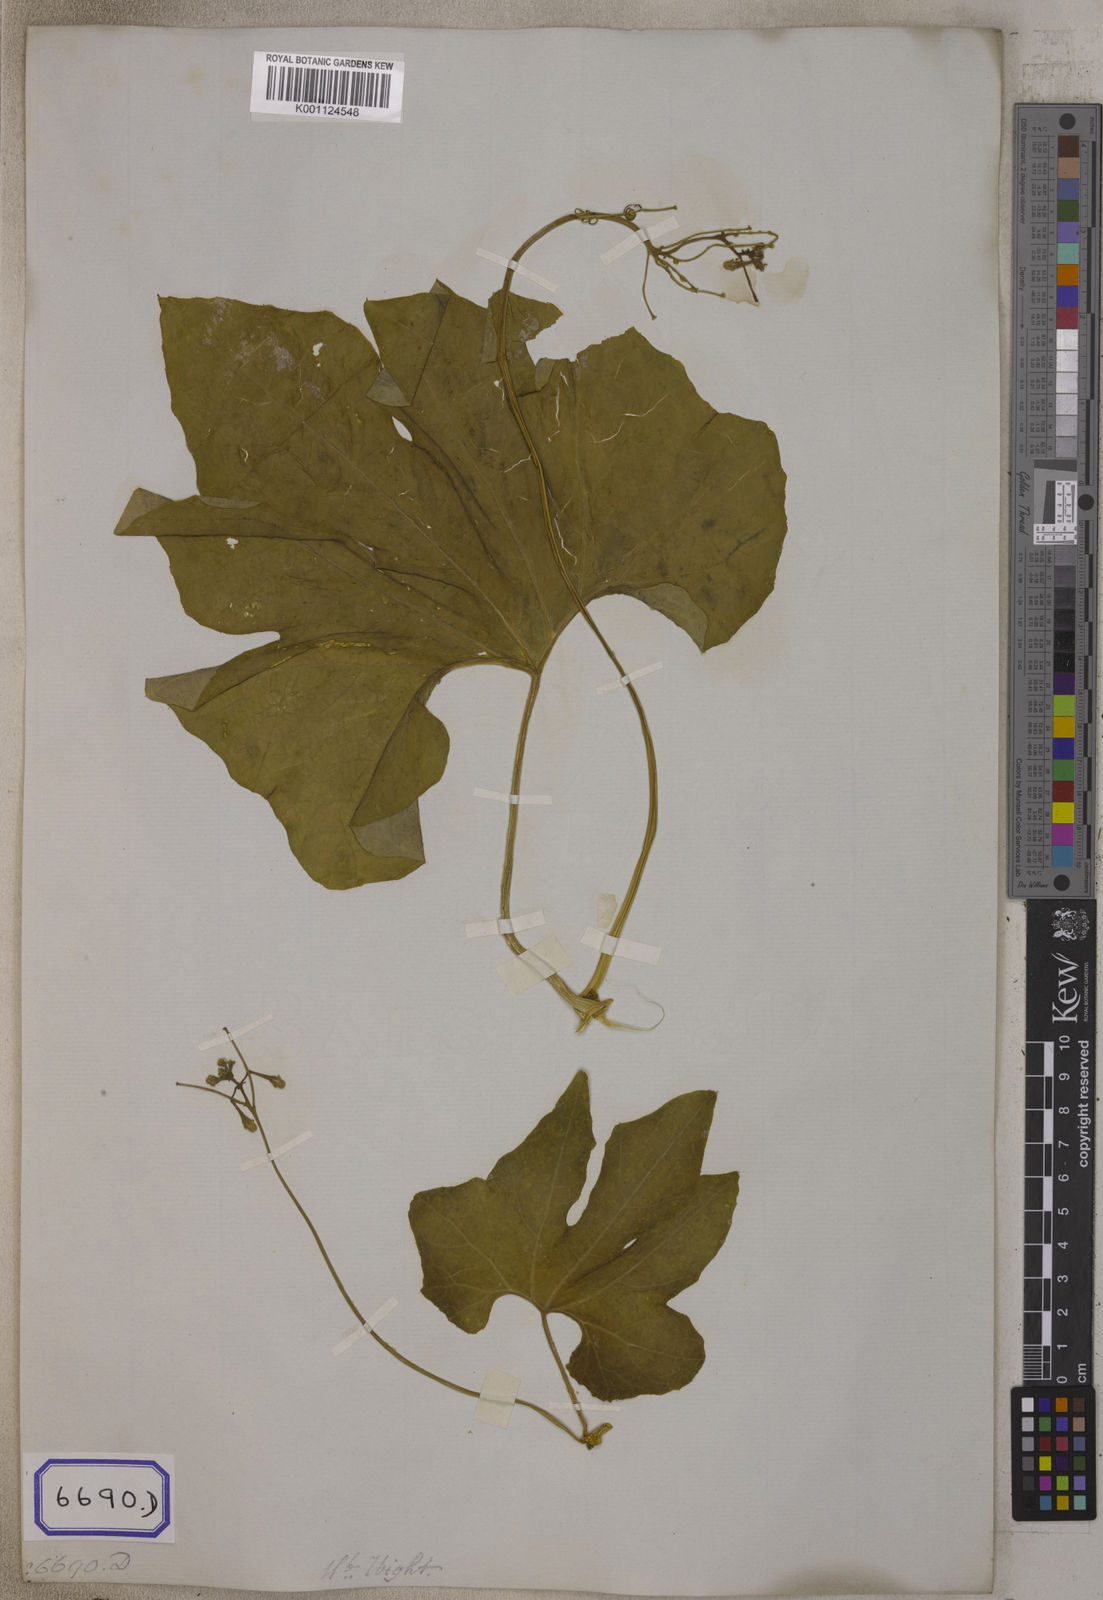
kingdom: Plantae
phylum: Tracheophyta
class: Magnoliopsida
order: Cucurbitales
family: Cucurbitaceae
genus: Trichosanthes
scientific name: Trichosanthes
